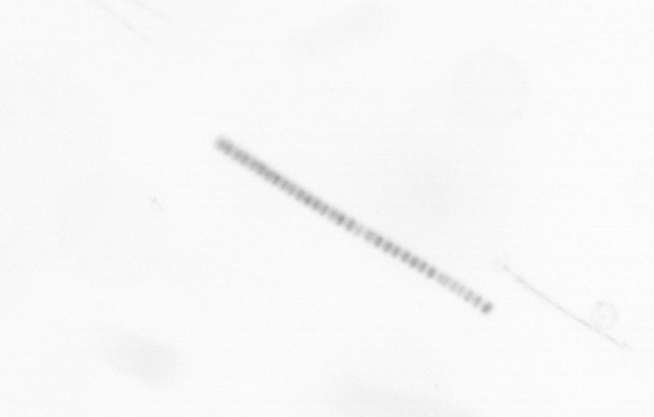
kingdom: Chromista
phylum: Ochrophyta
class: Bacillariophyceae
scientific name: Bacillariophyceae
